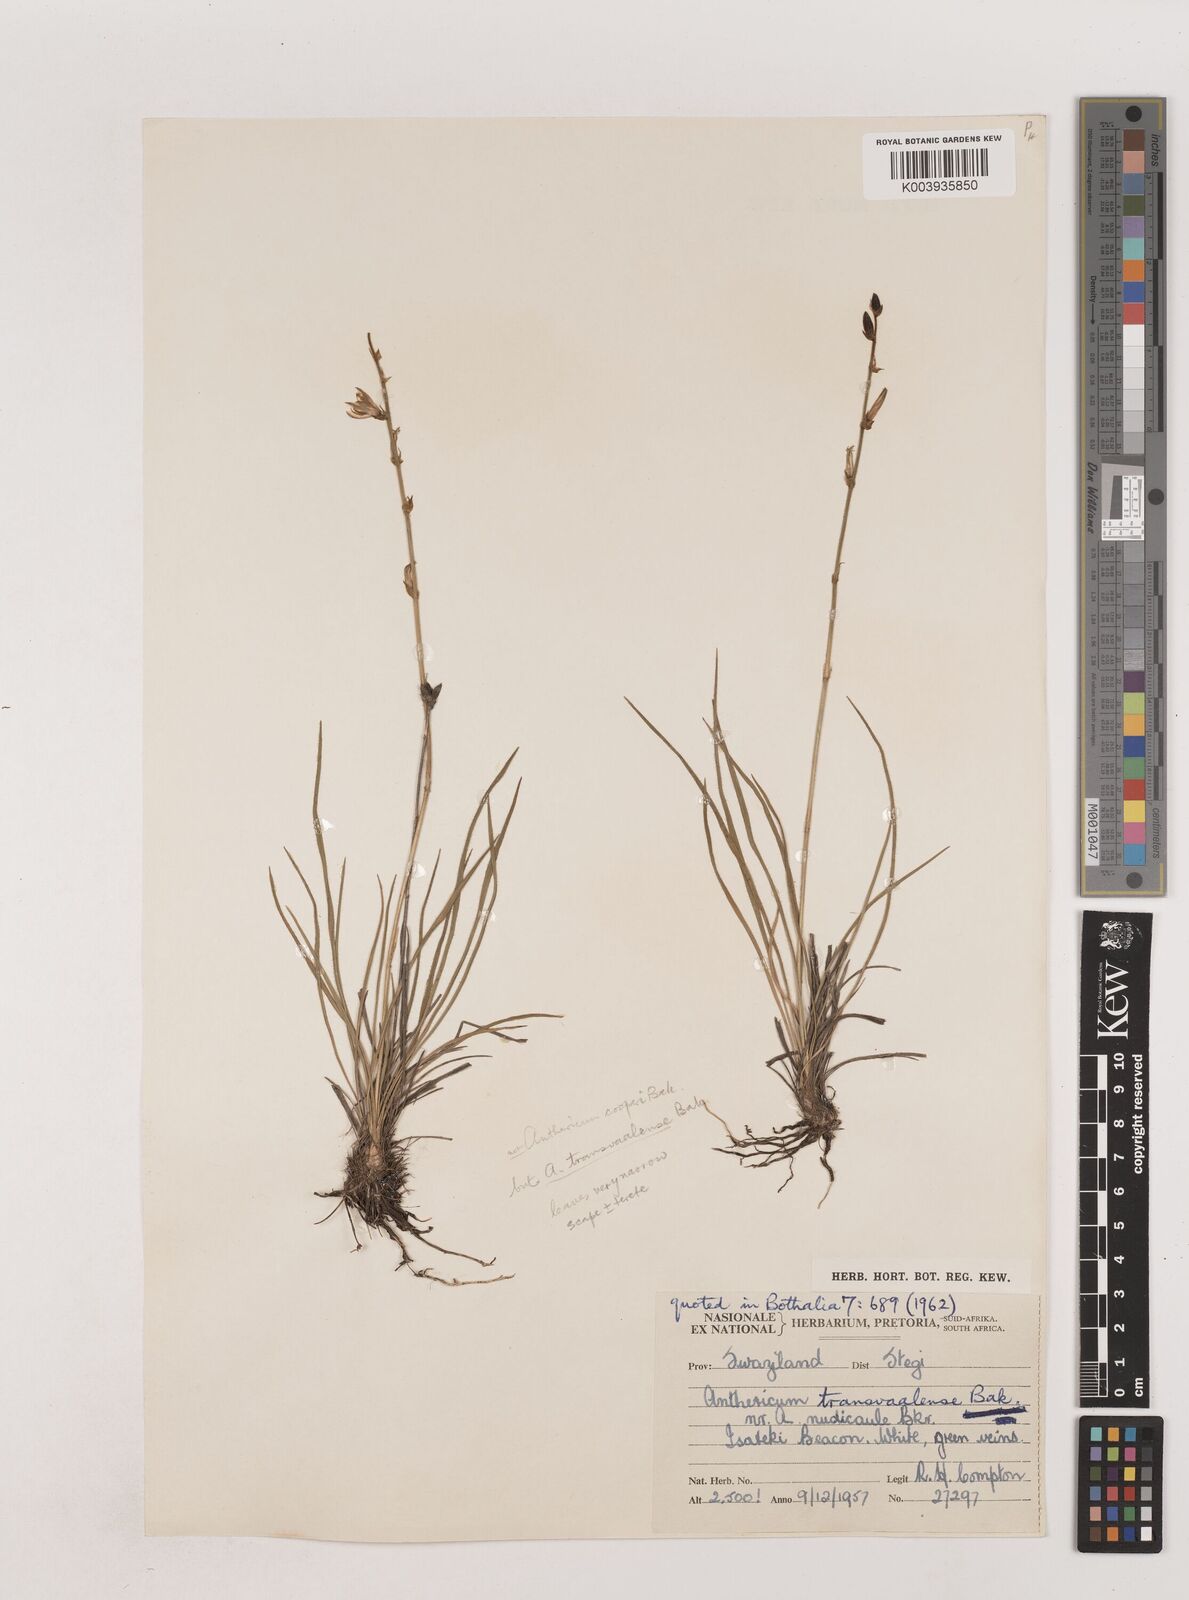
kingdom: Plantae
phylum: Tracheophyta
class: Liliopsida
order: Asparagales
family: Asparagaceae
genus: Chlorophytum
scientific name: Chlorophytum transvaalense
